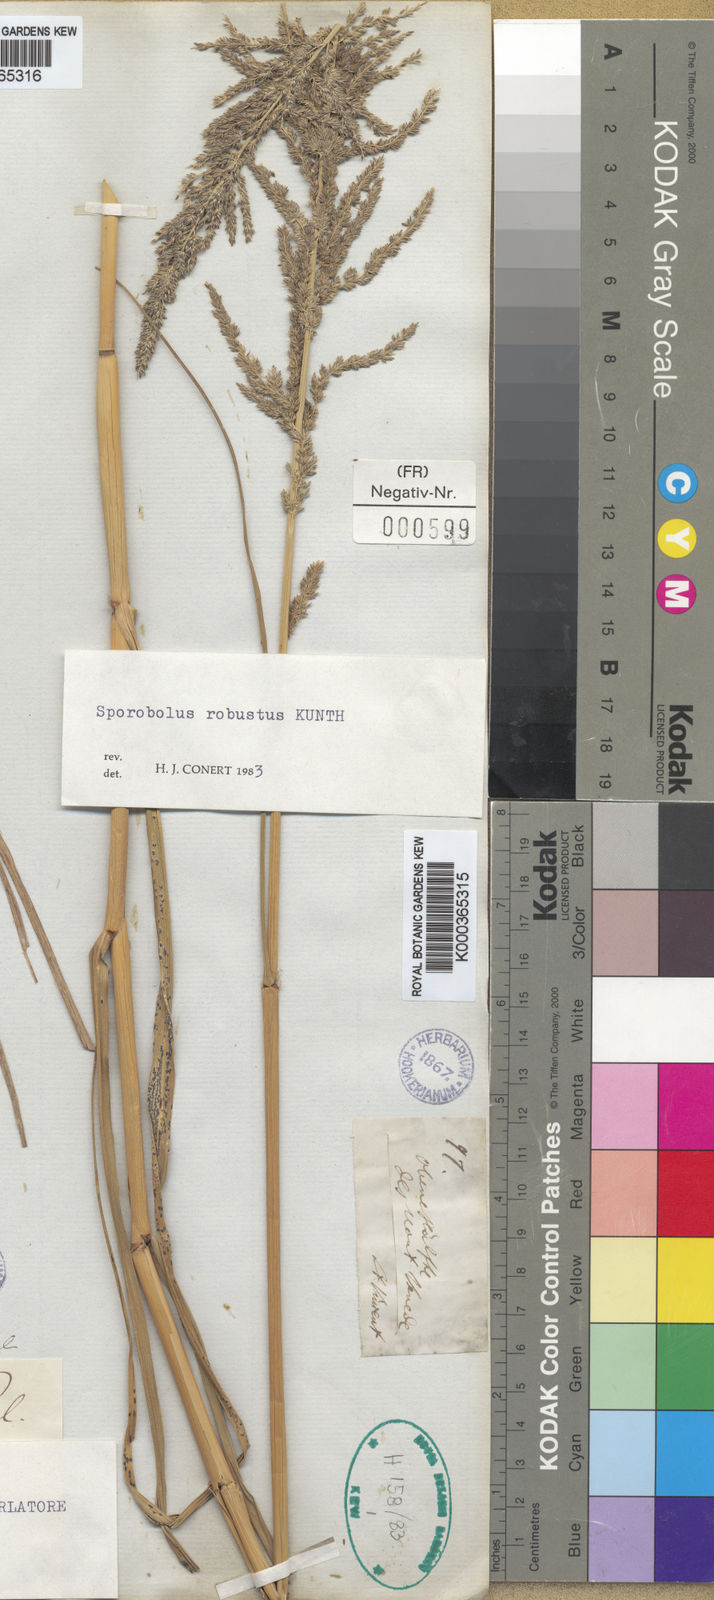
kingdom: Plantae
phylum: Tracheophyta
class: Liliopsida
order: Poales
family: Poaceae
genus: Sporobolus
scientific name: Sporobolus robustus
